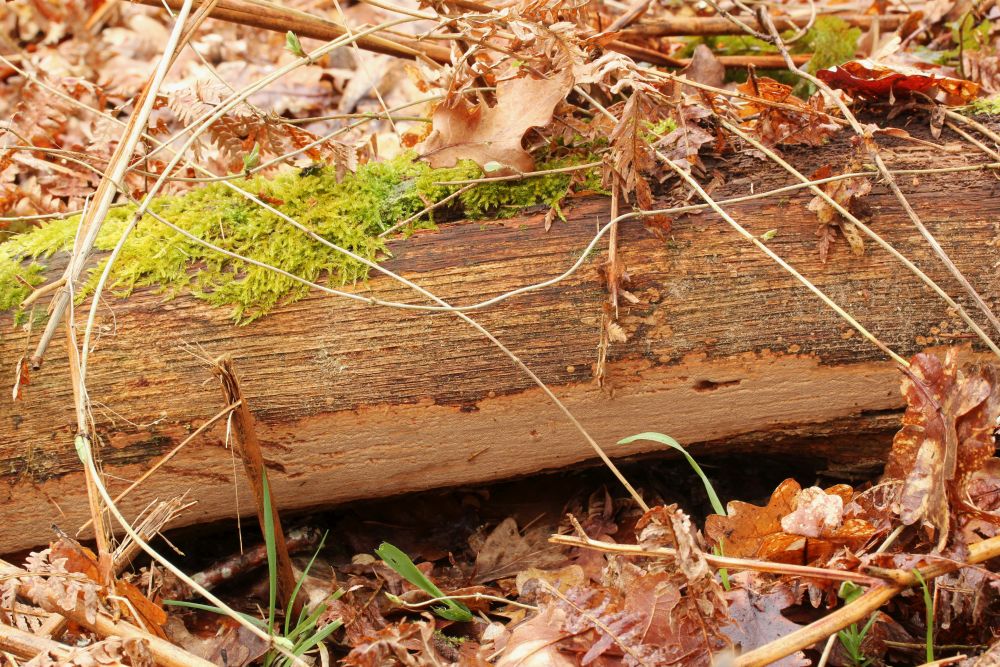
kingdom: Fungi
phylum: Basidiomycota
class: Agaricomycetes
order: Hymenochaetales
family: Hymenochaetaceae
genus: Fuscoporia
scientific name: Fuscoporia ferrea
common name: skorpe-ildporesvamp
